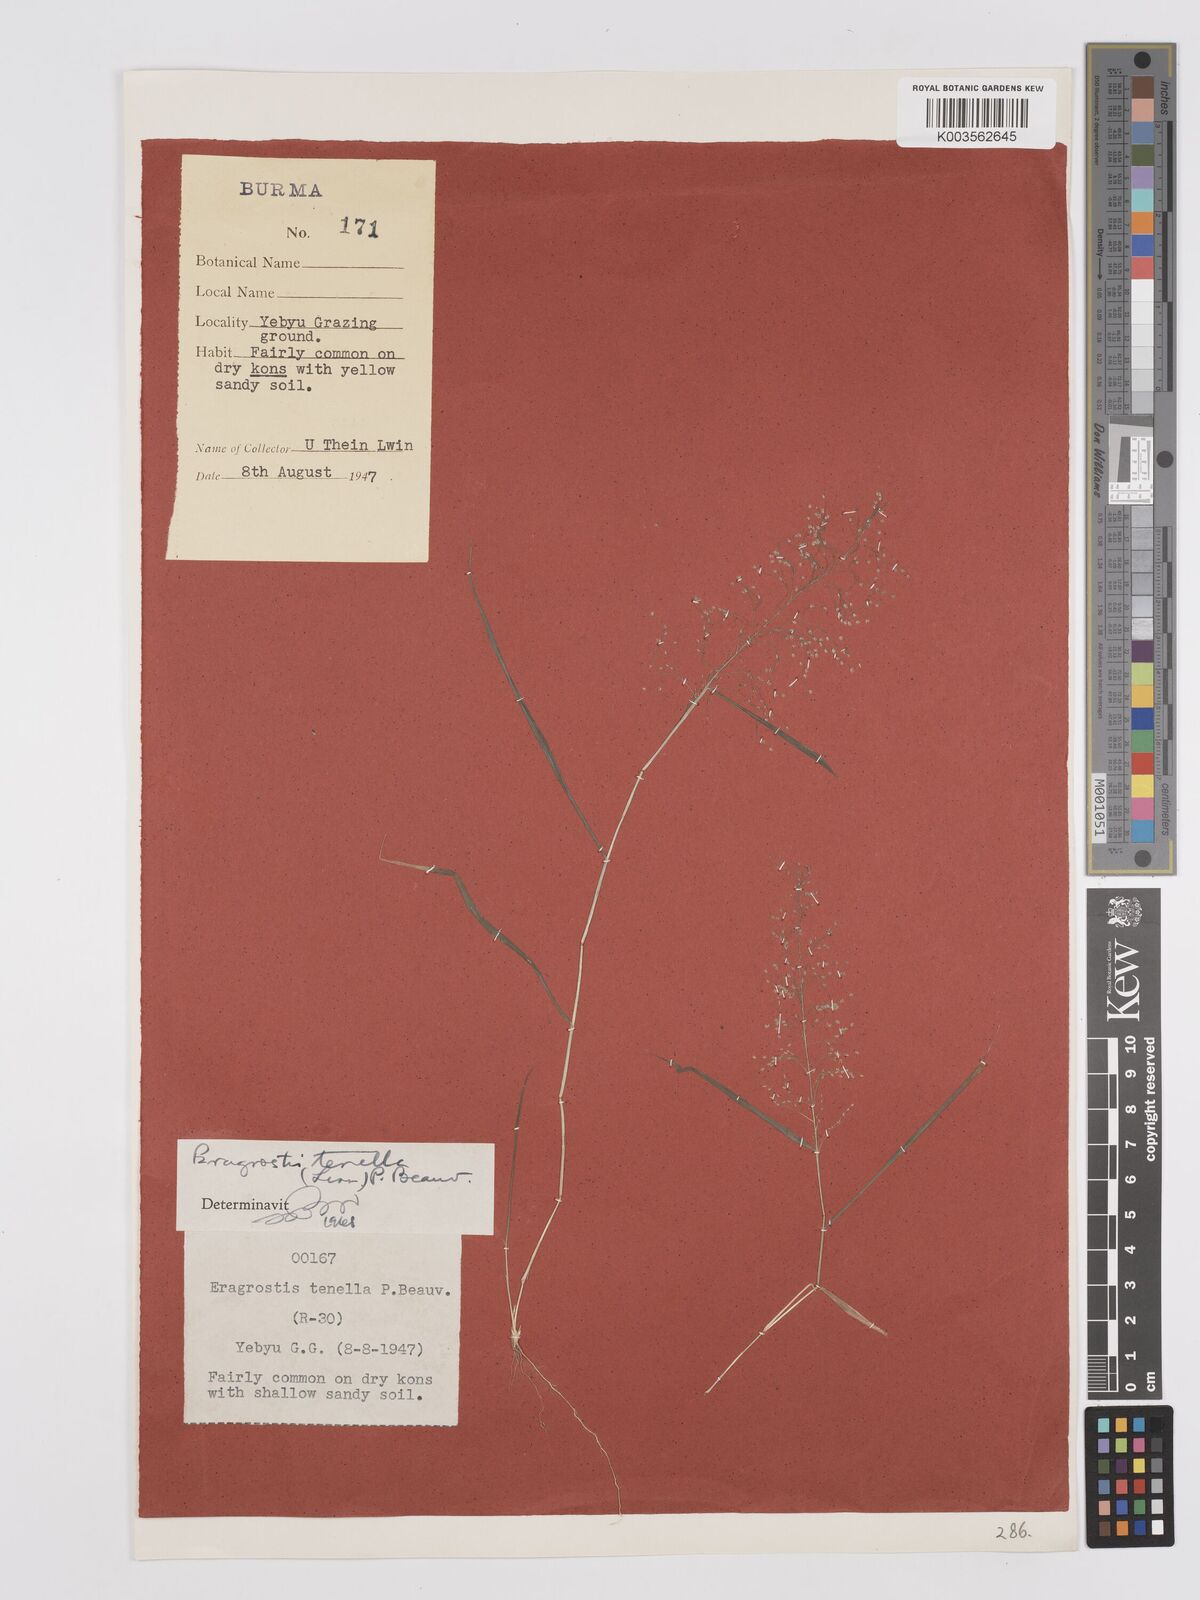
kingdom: Plantae
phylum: Tracheophyta
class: Liliopsida
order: Poales
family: Poaceae
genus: Eragrostis
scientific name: Eragrostis tenella
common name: Japanese lovegrass
